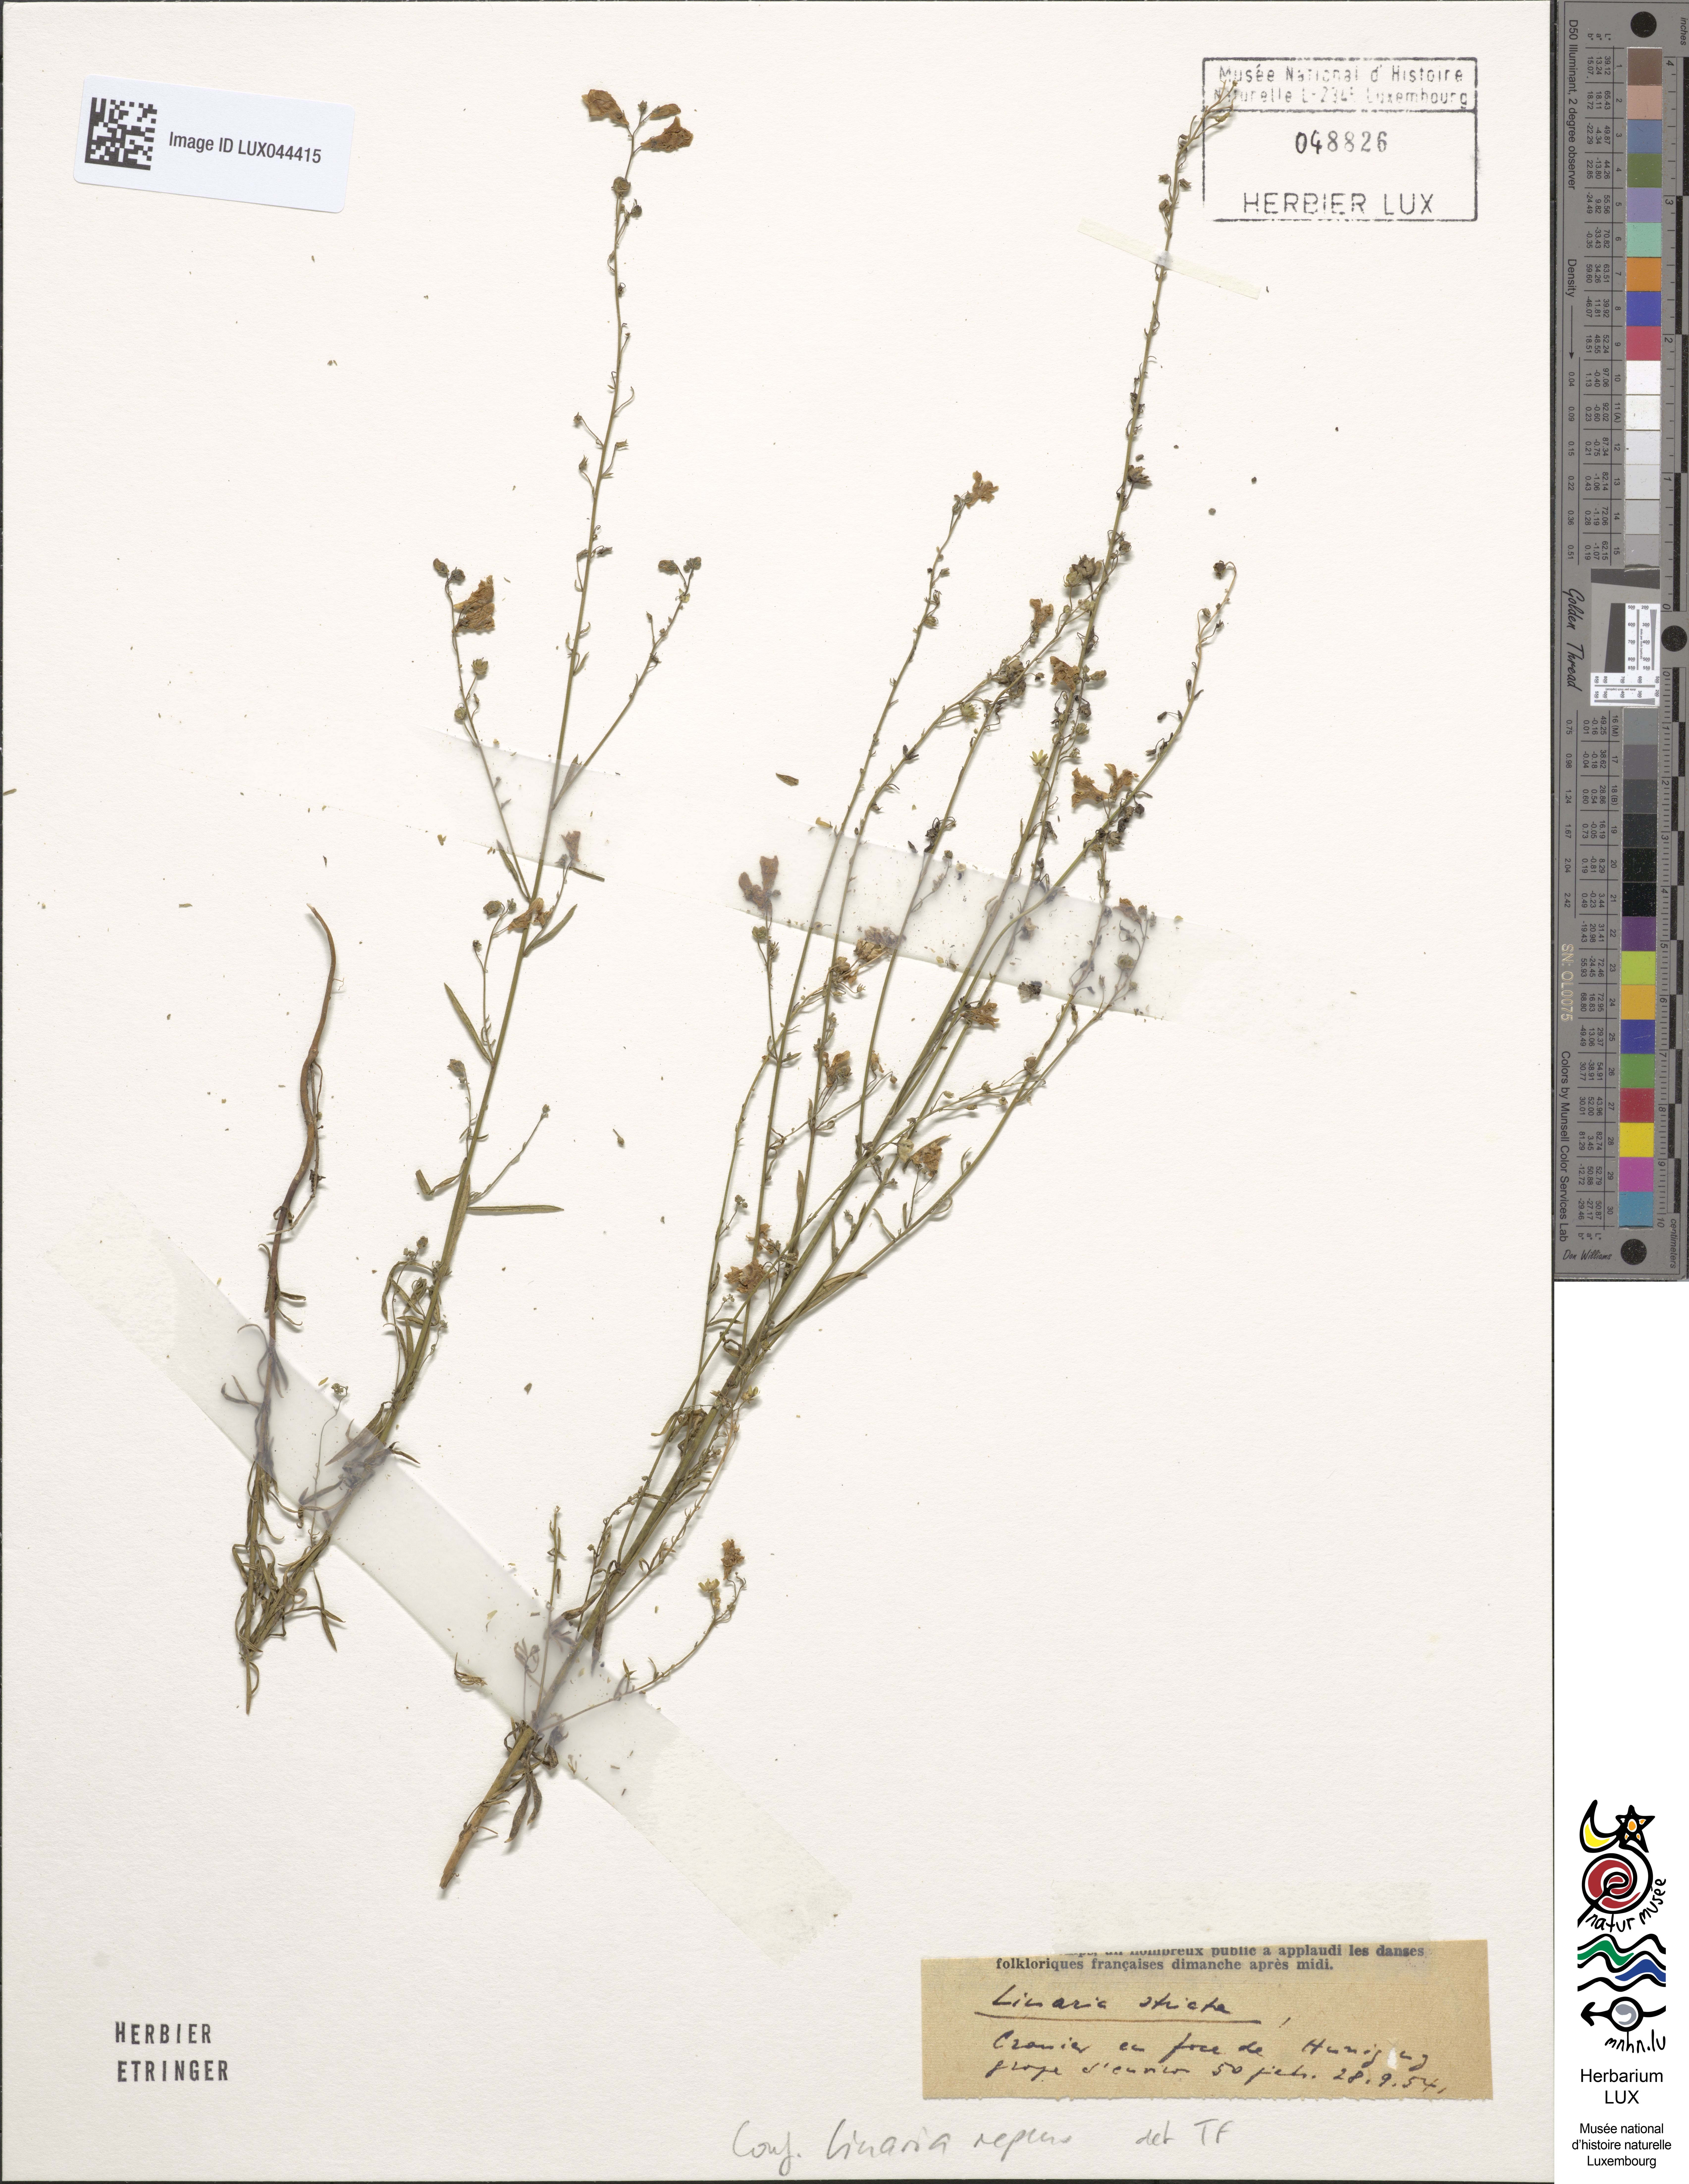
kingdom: Plantae
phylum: Tracheophyta
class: Magnoliopsida
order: Lamiales
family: Plantaginaceae
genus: Linaria
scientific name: Linaria repens
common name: Pale toadflax
